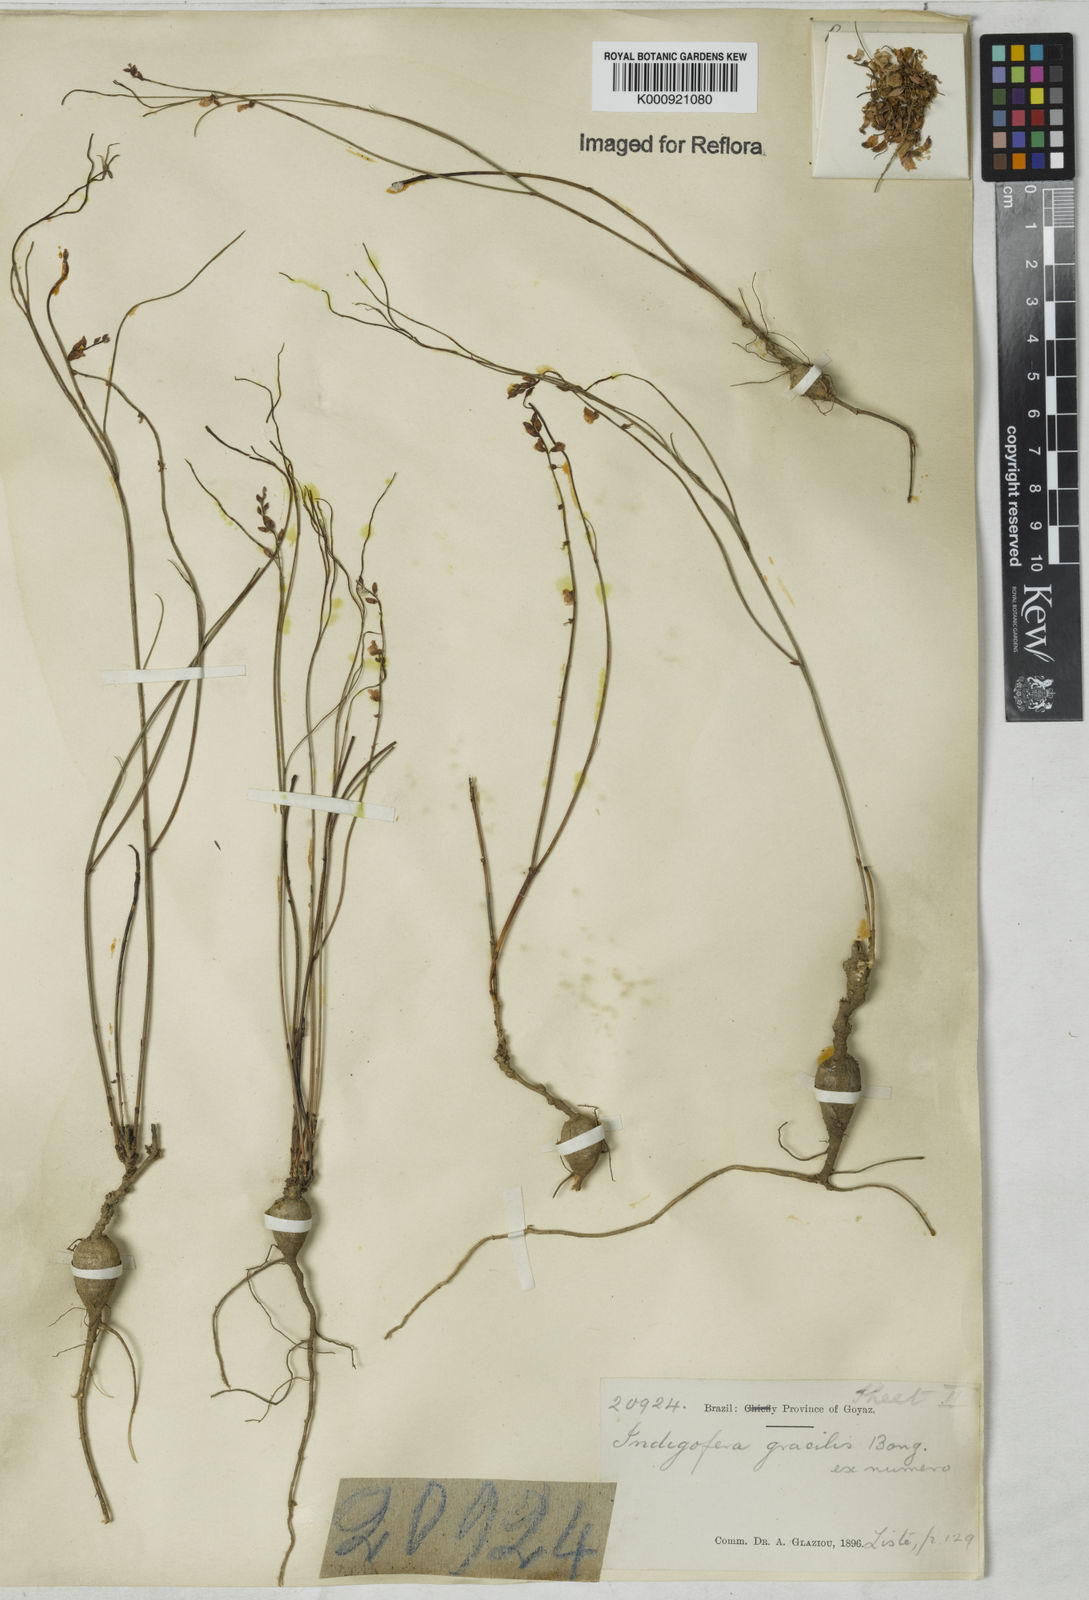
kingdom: Plantae
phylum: Tracheophyta
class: Magnoliopsida
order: Fabales
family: Fabaceae
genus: Indigofera
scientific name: Indigofera bongardiana
